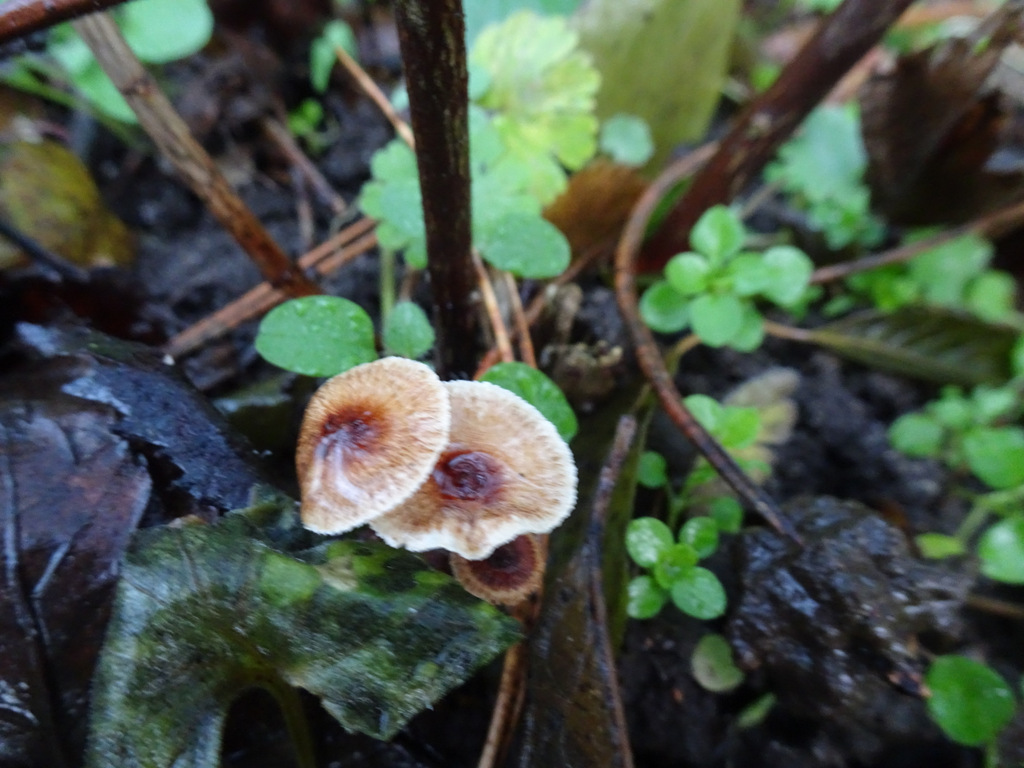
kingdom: Fungi
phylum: Basidiomycota
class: Agaricomycetes
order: Agaricales
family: Marasmiaceae
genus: Crinipellis
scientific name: Crinipellis scabella
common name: børstefod
